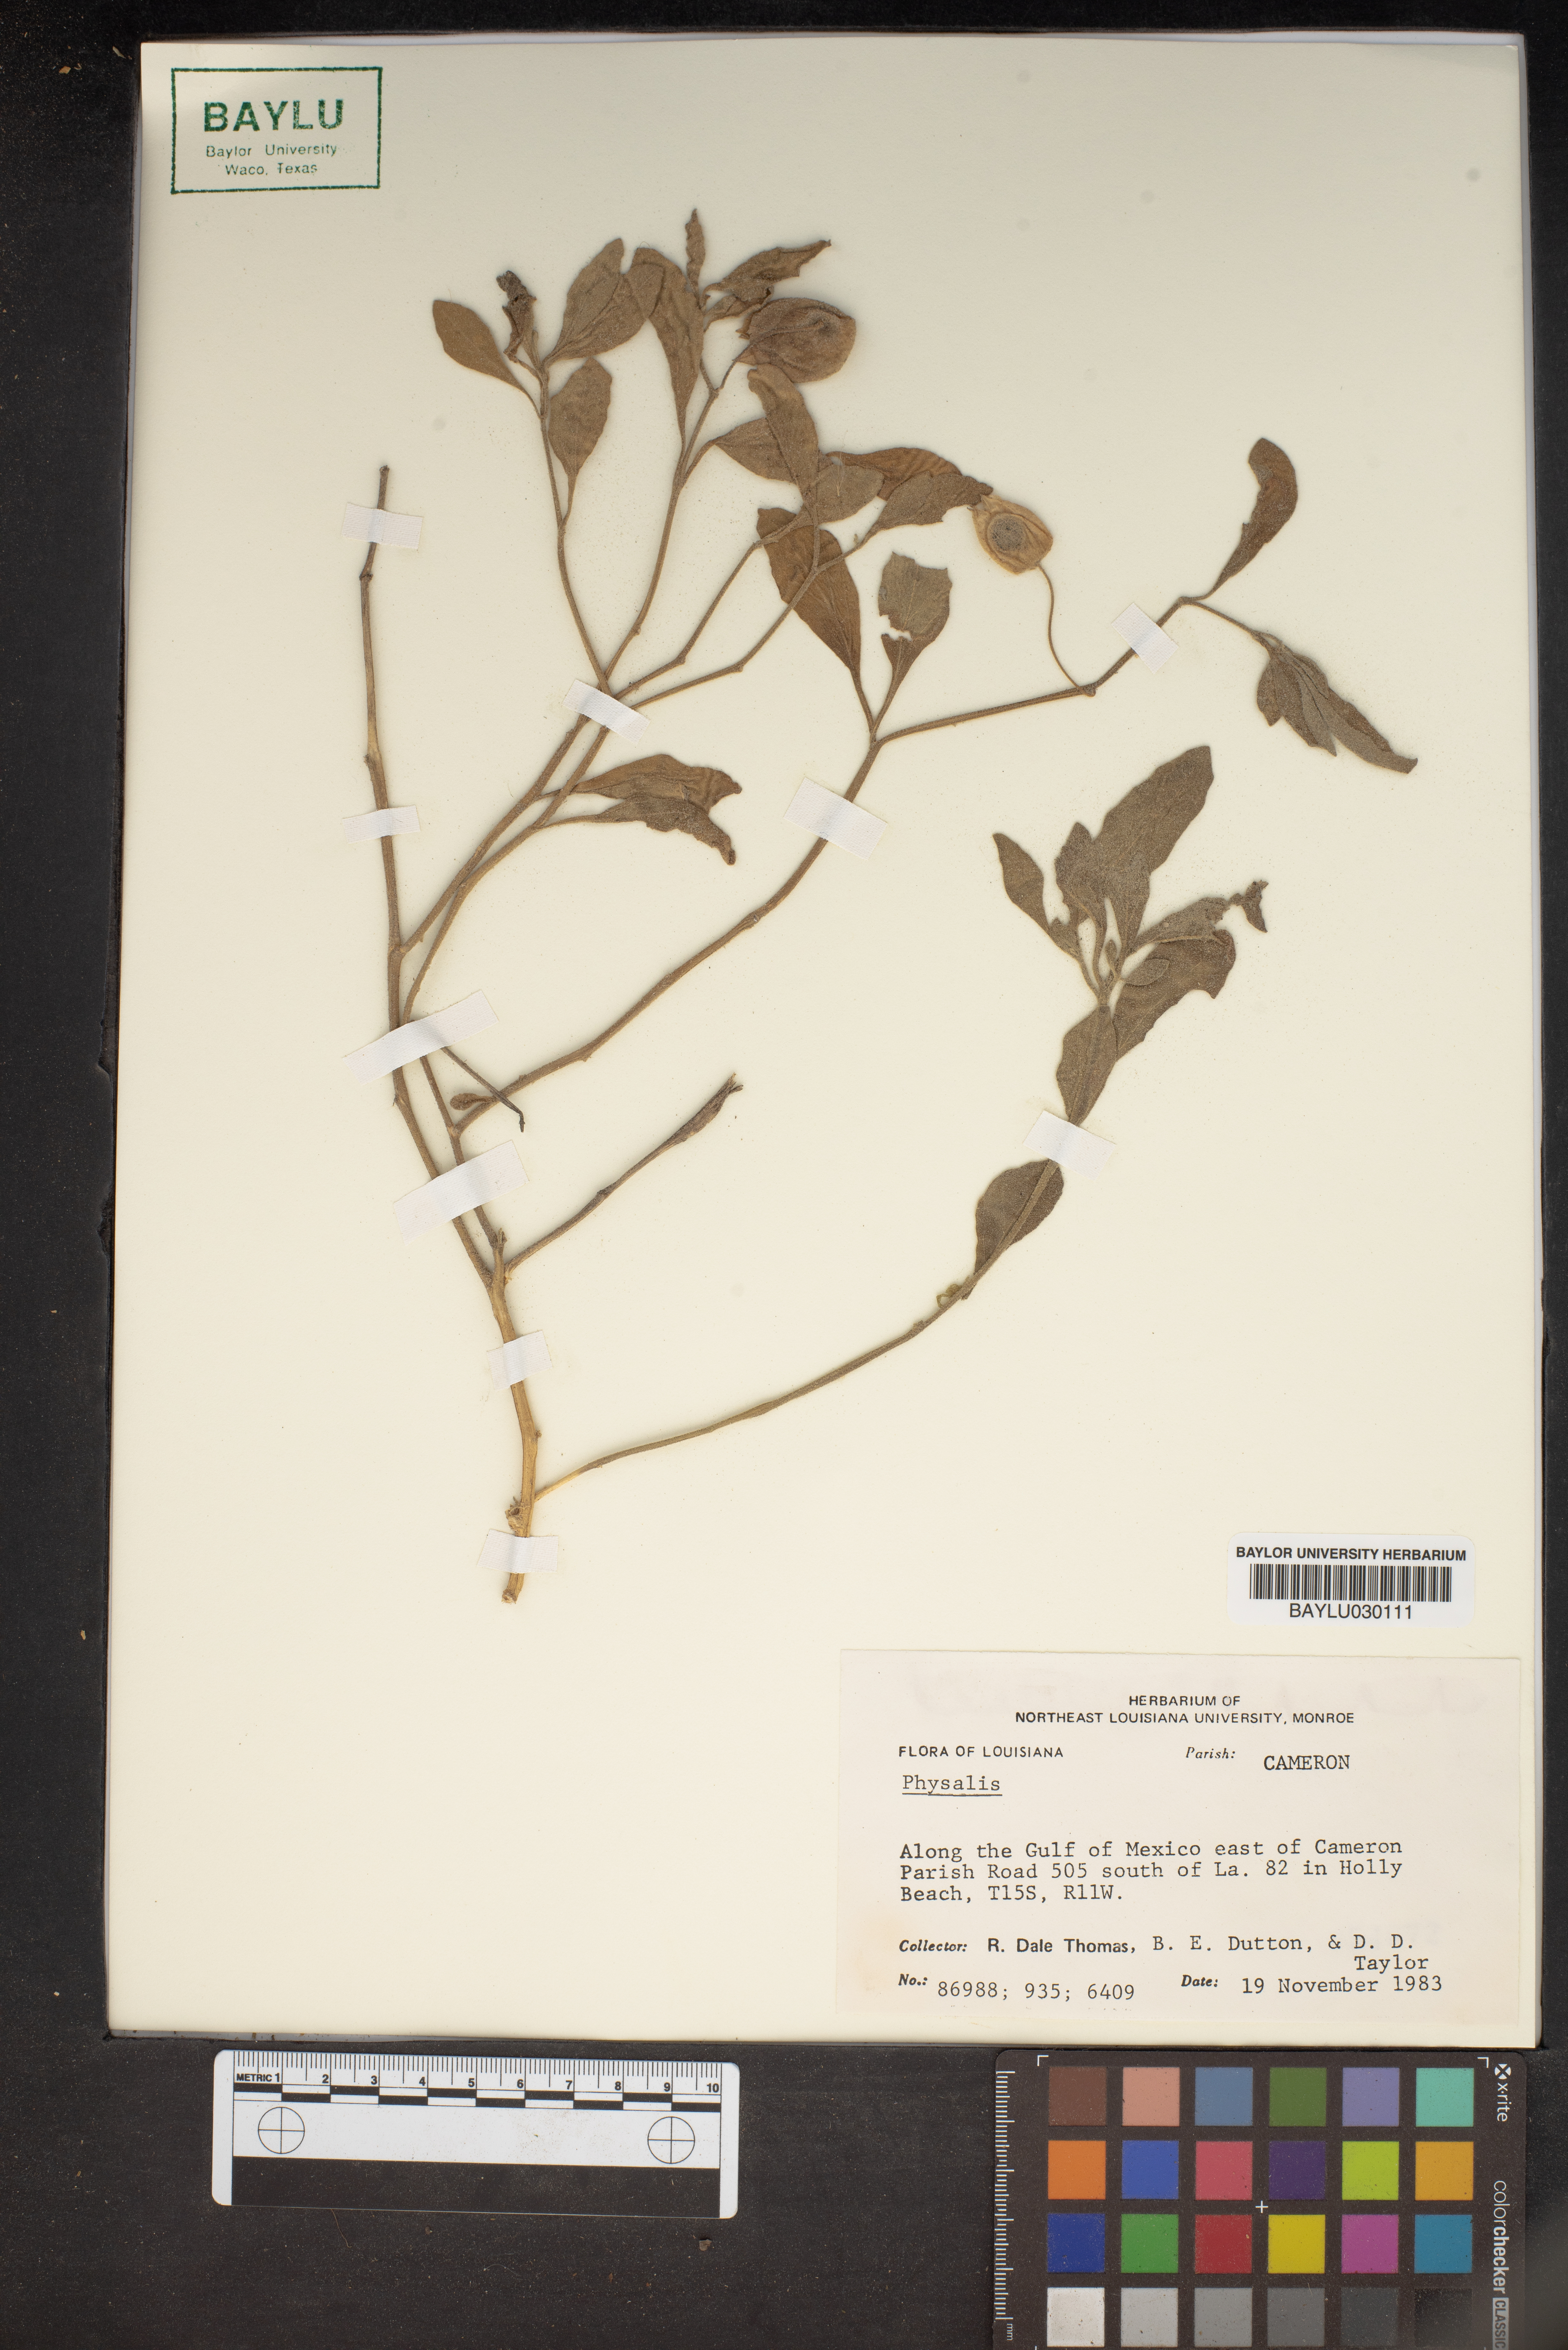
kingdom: Plantae
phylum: Tracheophyta
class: Magnoliopsida
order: Solanales
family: Solanaceae
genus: Physalis
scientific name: Physalis
